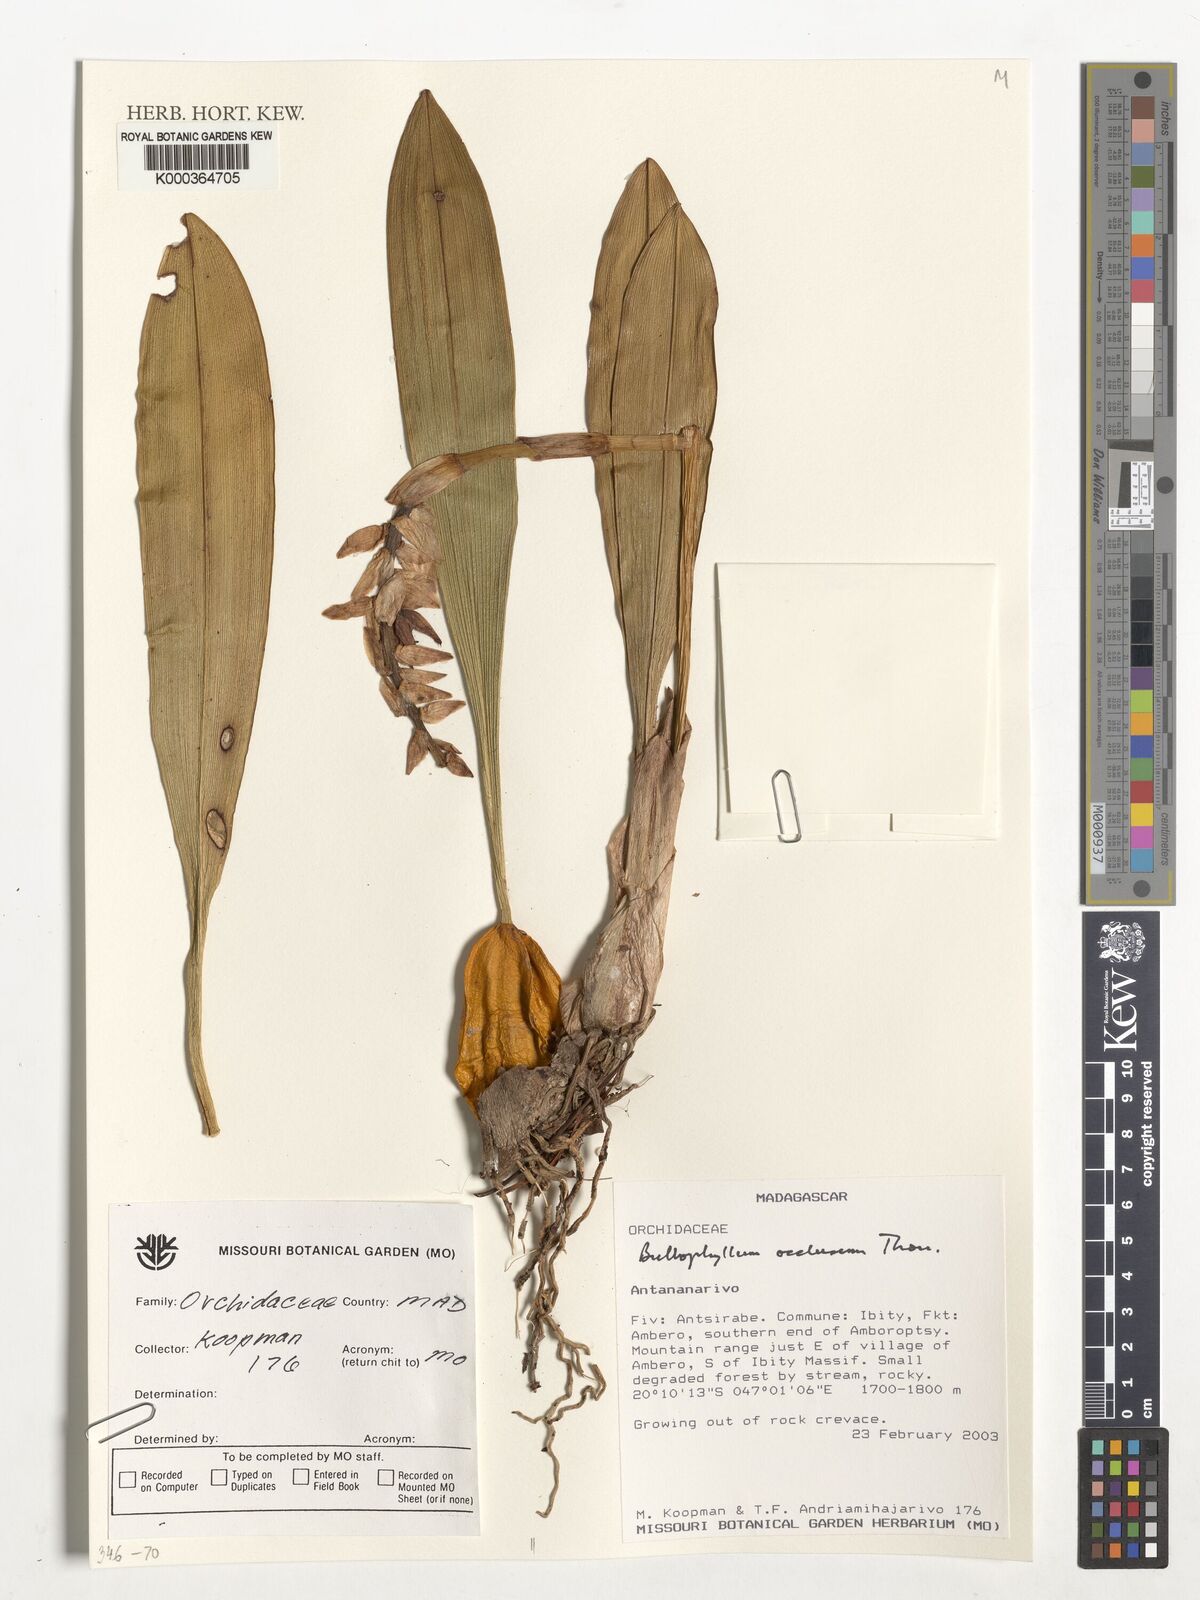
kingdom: Plantae
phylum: Tracheophyta
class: Liliopsida
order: Asparagales
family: Orchidaceae
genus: Bulbophyllum
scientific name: Bulbophyllum reclusum
